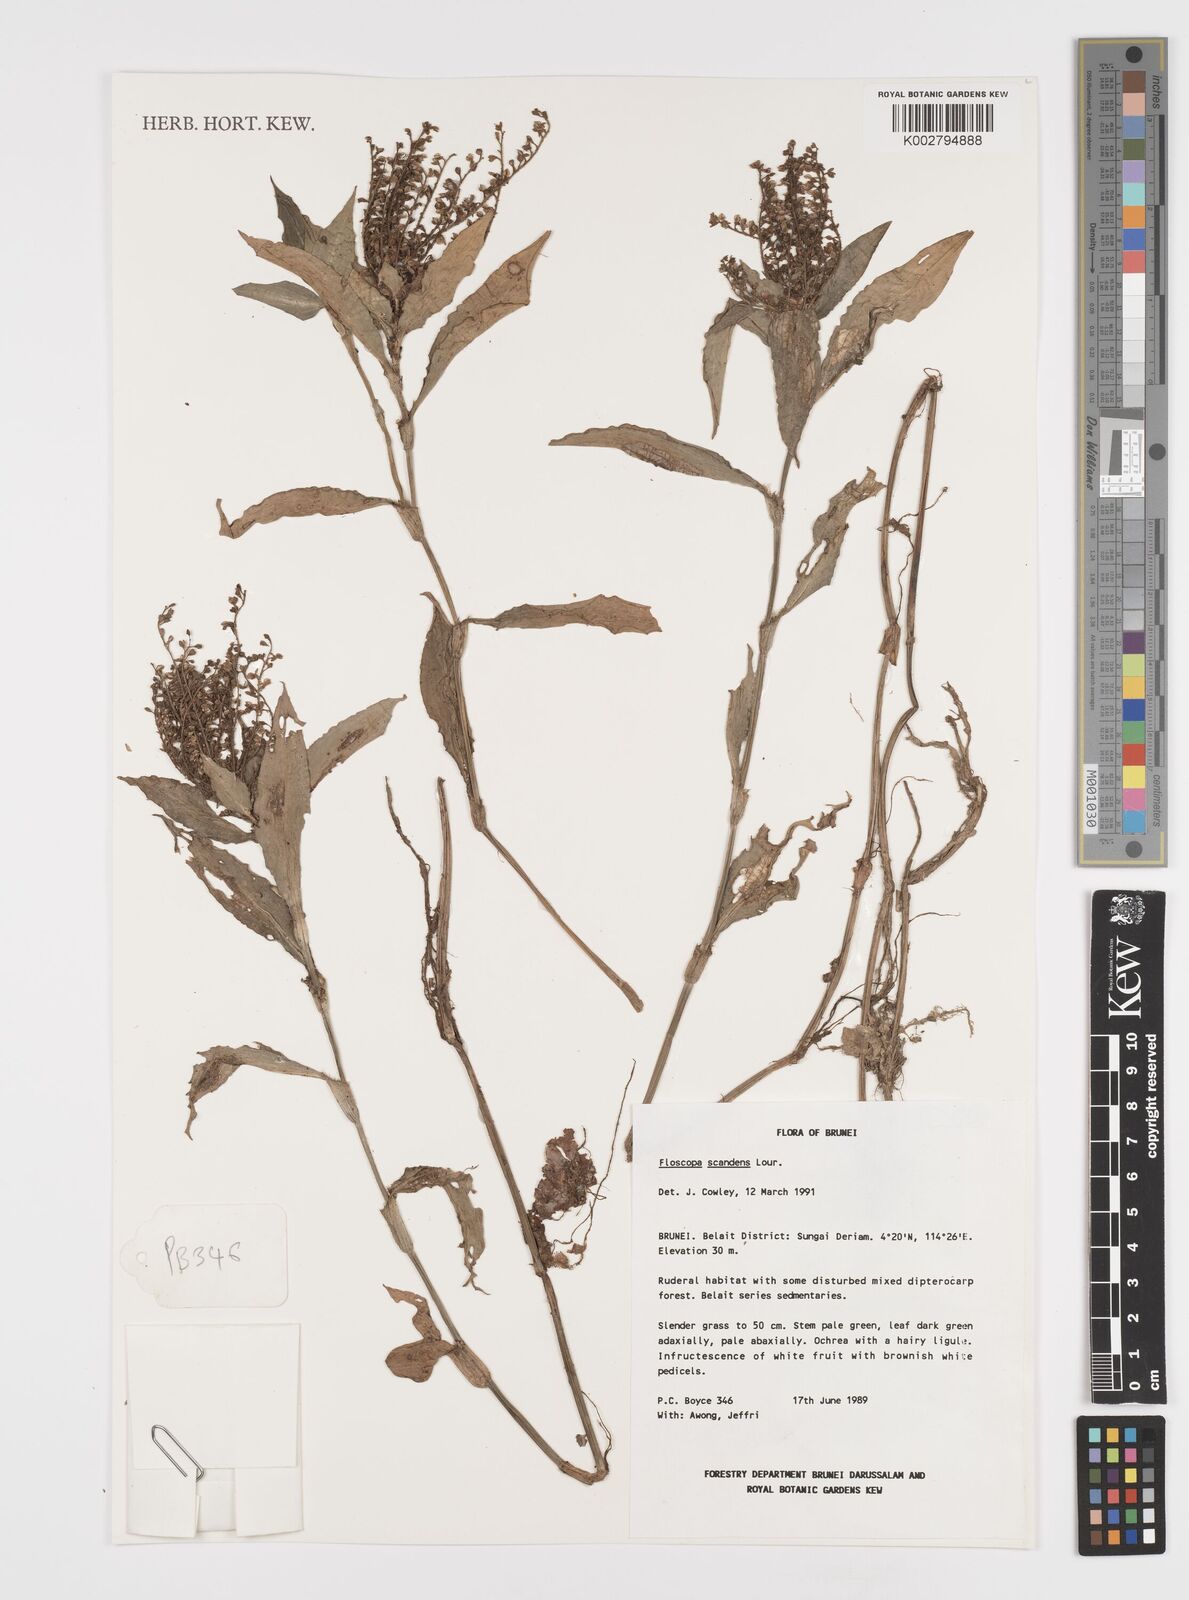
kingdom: Plantae
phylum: Tracheophyta
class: Liliopsida
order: Commelinales
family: Commelinaceae
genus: Floscopa
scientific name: Floscopa scandens
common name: Climbing flower cup
